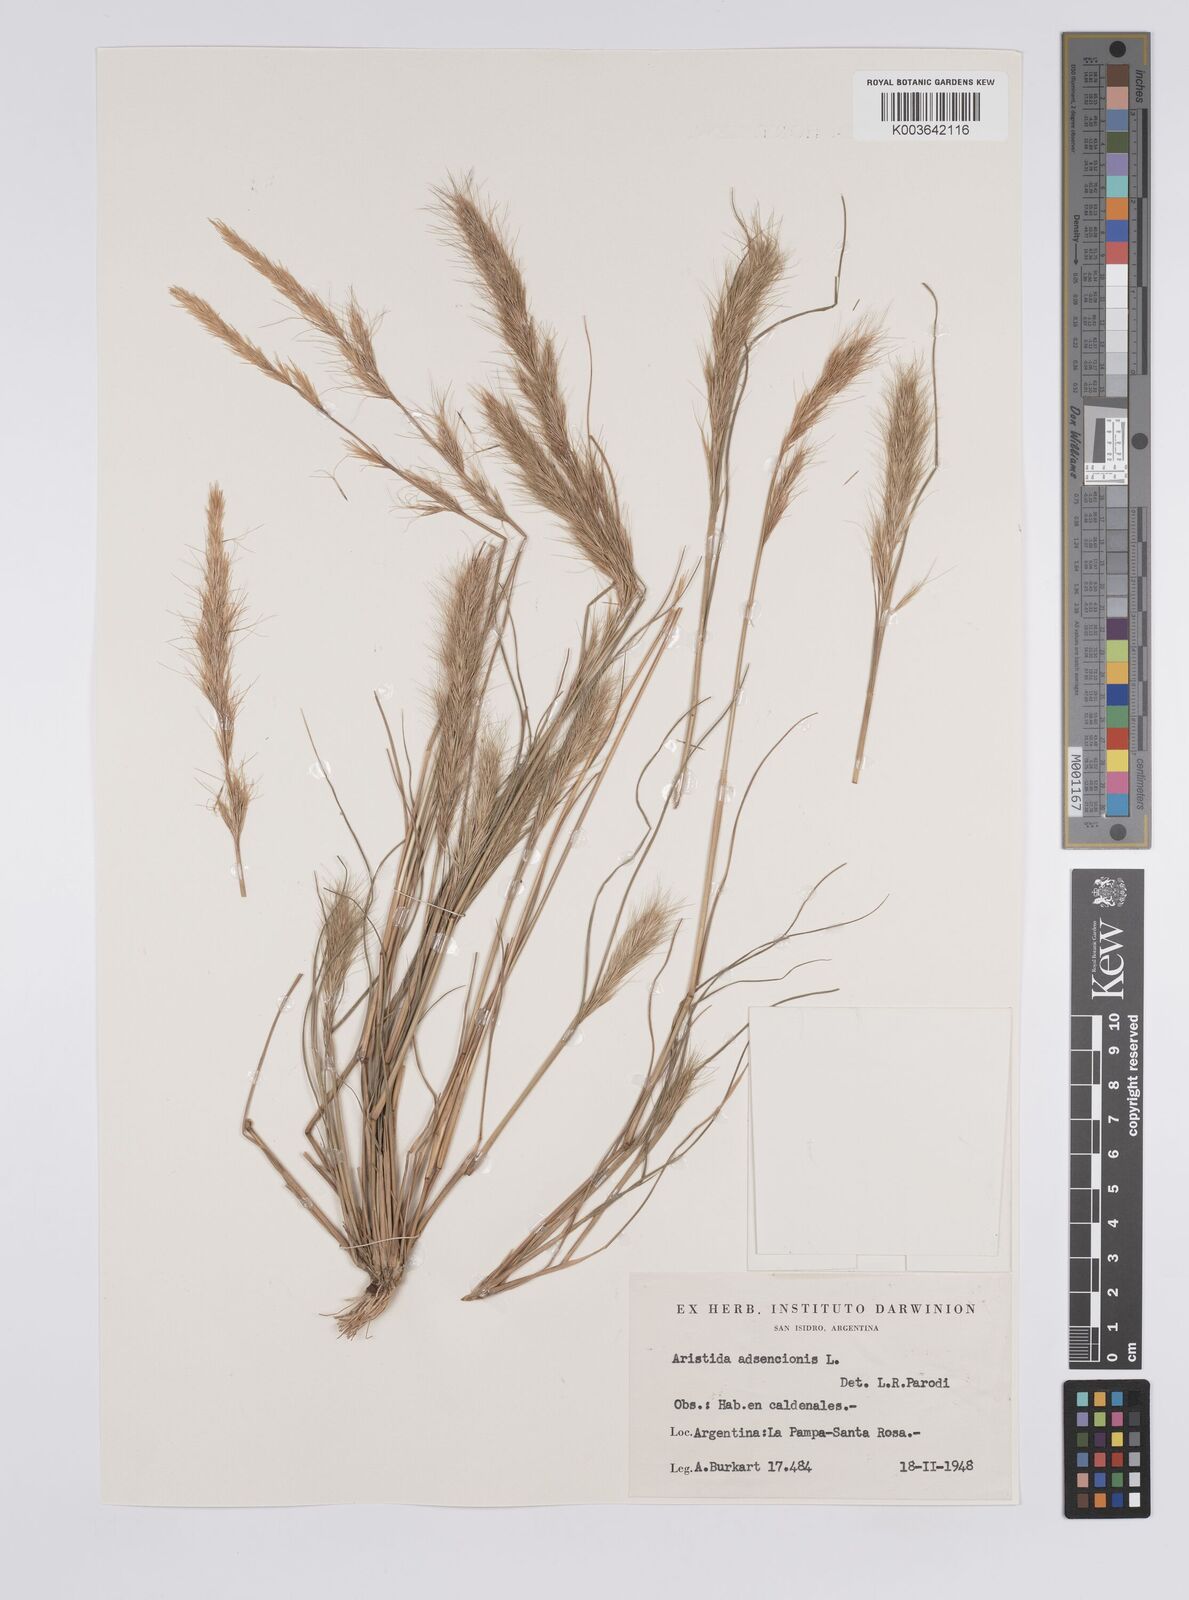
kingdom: Plantae
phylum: Tracheophyta
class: Liliopsida
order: Poales
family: Poaceae
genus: Aristida
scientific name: Aristida adscensionis
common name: Sixweeks threeawn
